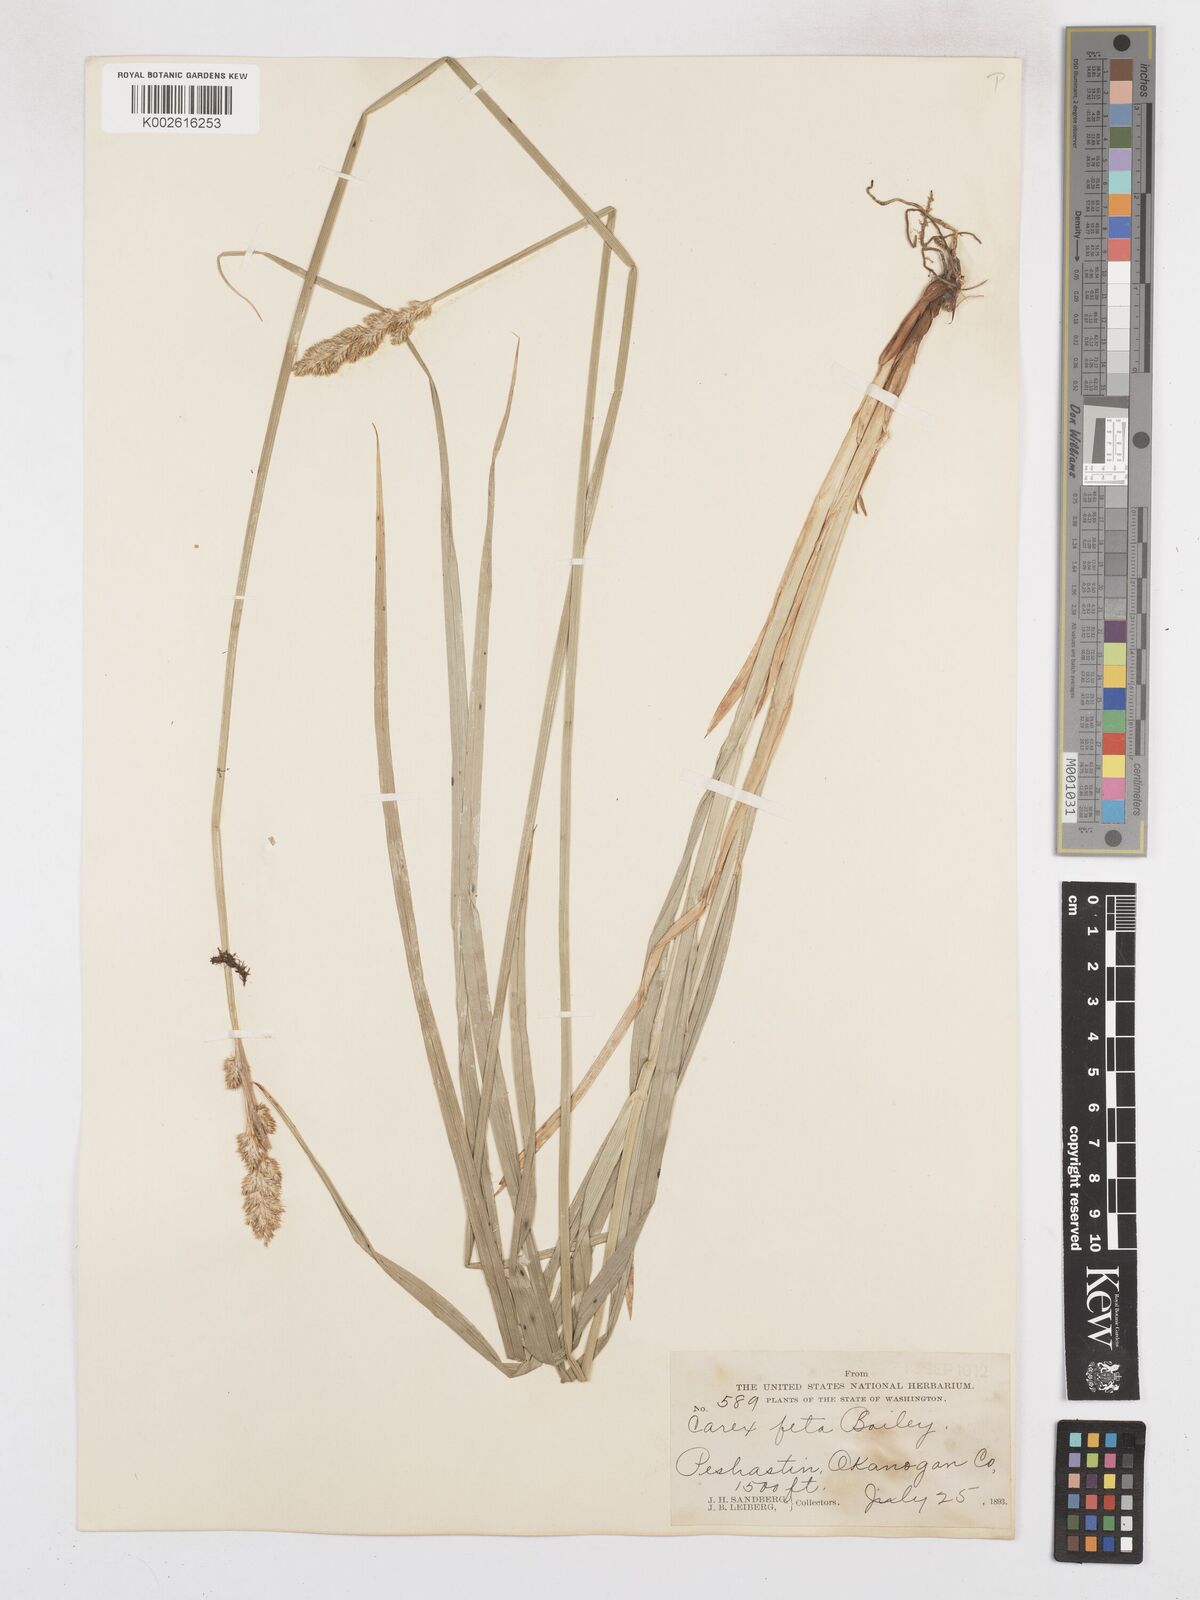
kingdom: Plantae
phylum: Tracheophyta
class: Liliopsida
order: Poales
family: Cyperaceae
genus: Carex
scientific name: Carex feta
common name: Green-sheathed sedge
